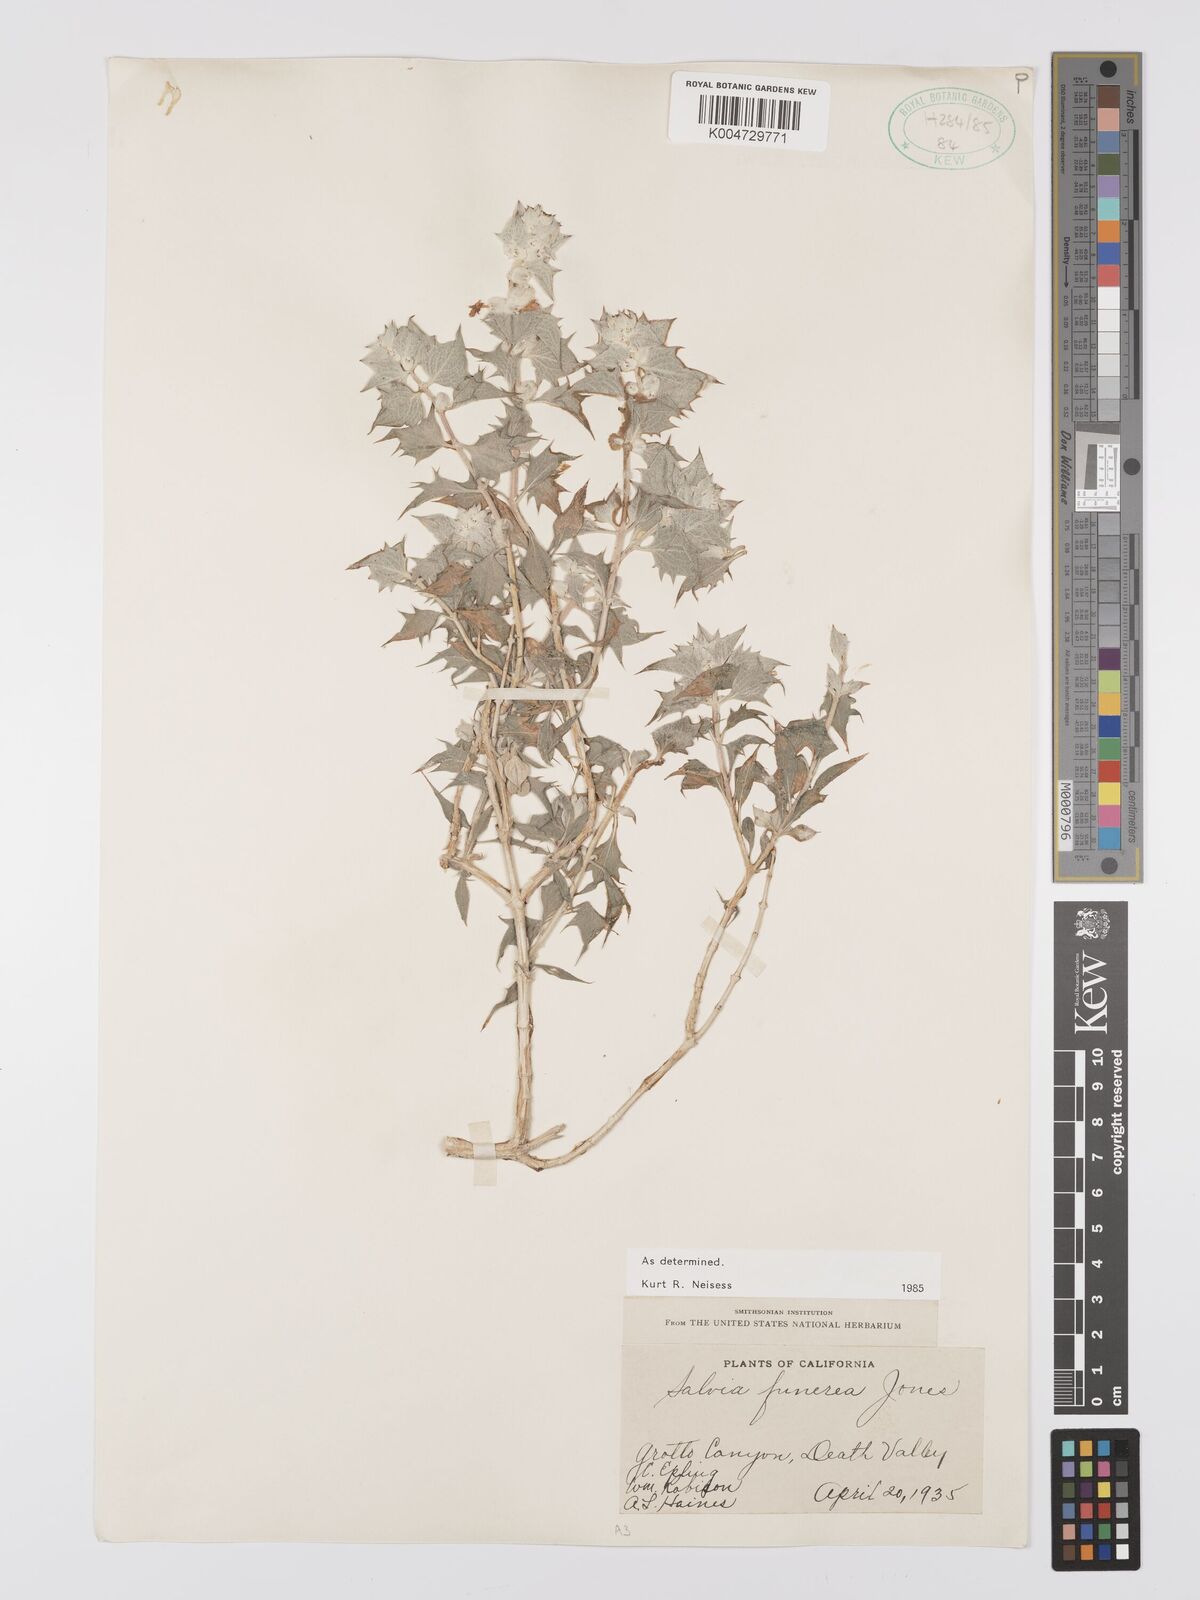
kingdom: Plantae
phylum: Tracheophyta
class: Magnoliopsida
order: Lamiales
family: Lamiaceae
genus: Salvia
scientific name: Salvia funerea
